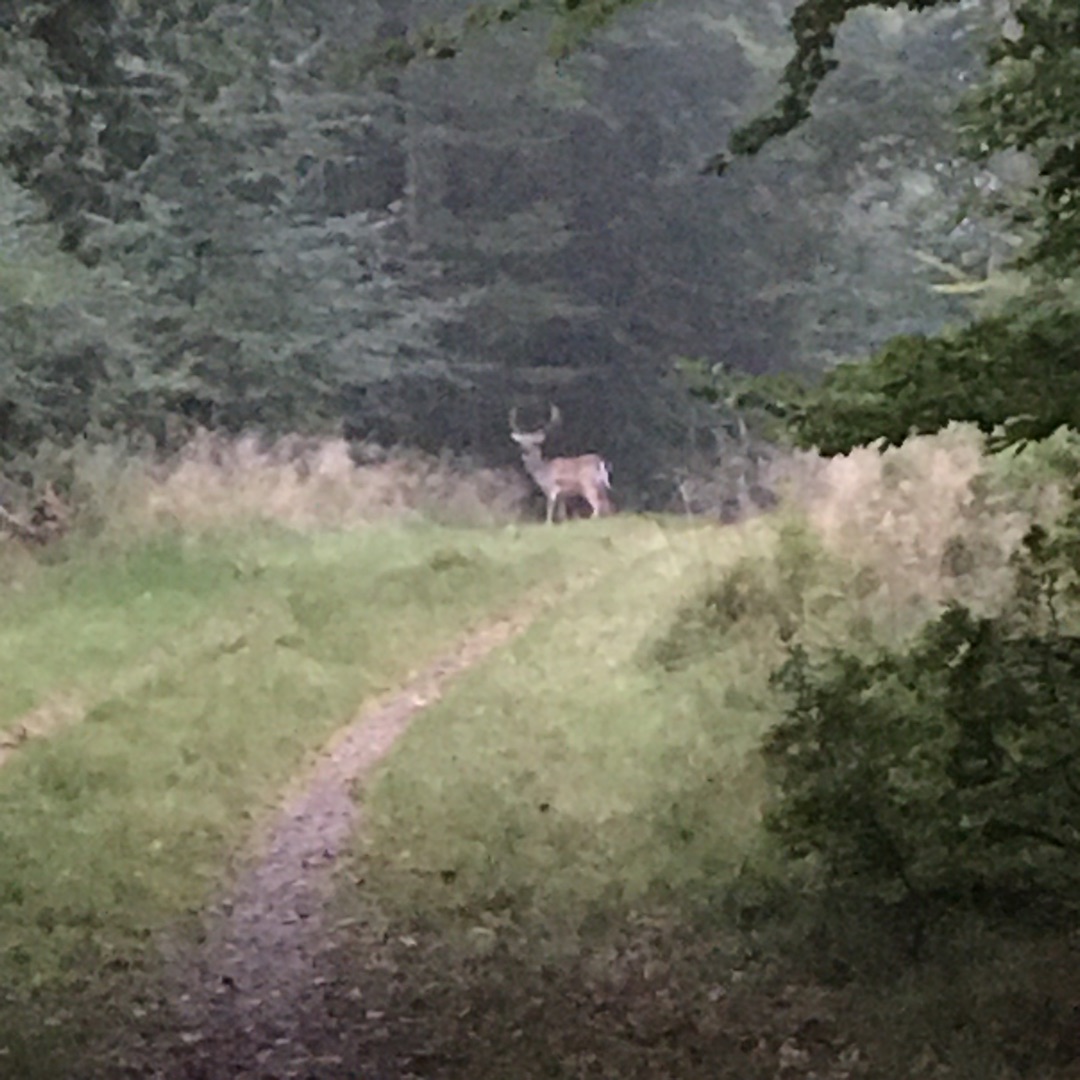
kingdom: Animalia
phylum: Chordata
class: Mammalia
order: Artiodactyla
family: Cervidae
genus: Dama
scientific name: Dama dama
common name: Dådyr
